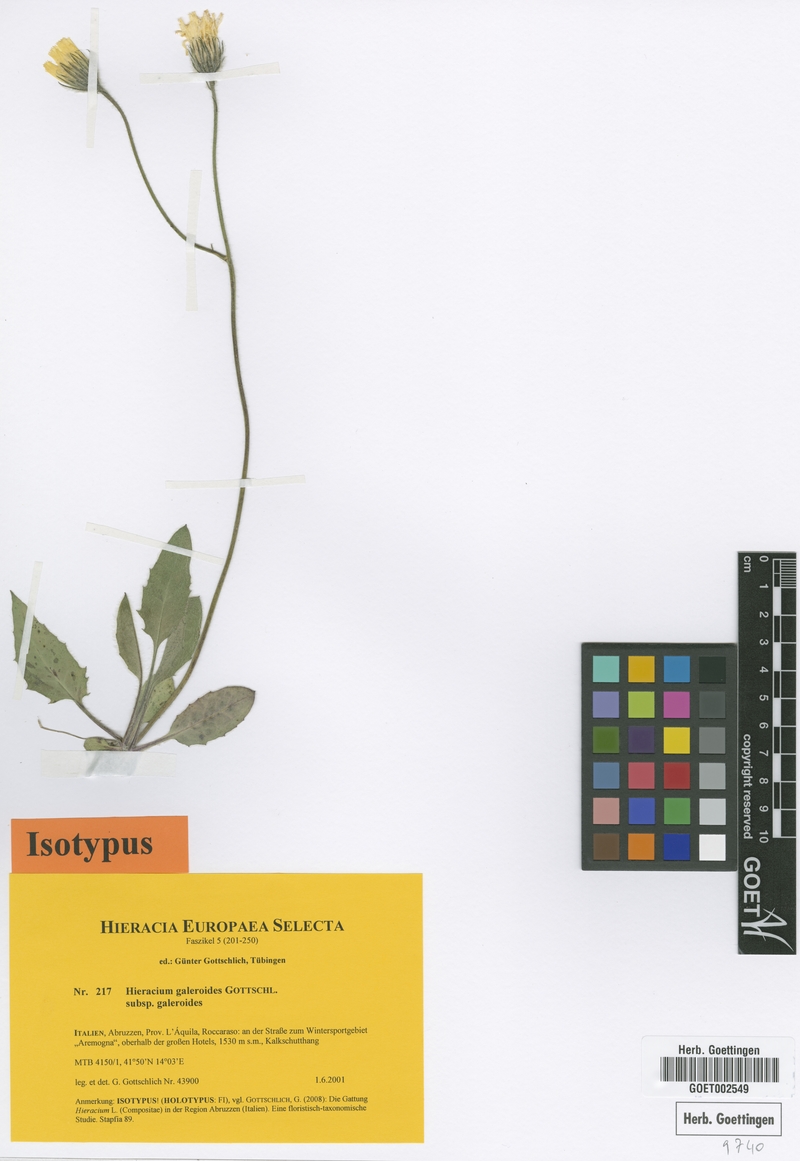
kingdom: Plantae
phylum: Tracheophyta
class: Magnoliopsida
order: Asterales
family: Asteraceae
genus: Hieracium
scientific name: Hieracium galeroides
